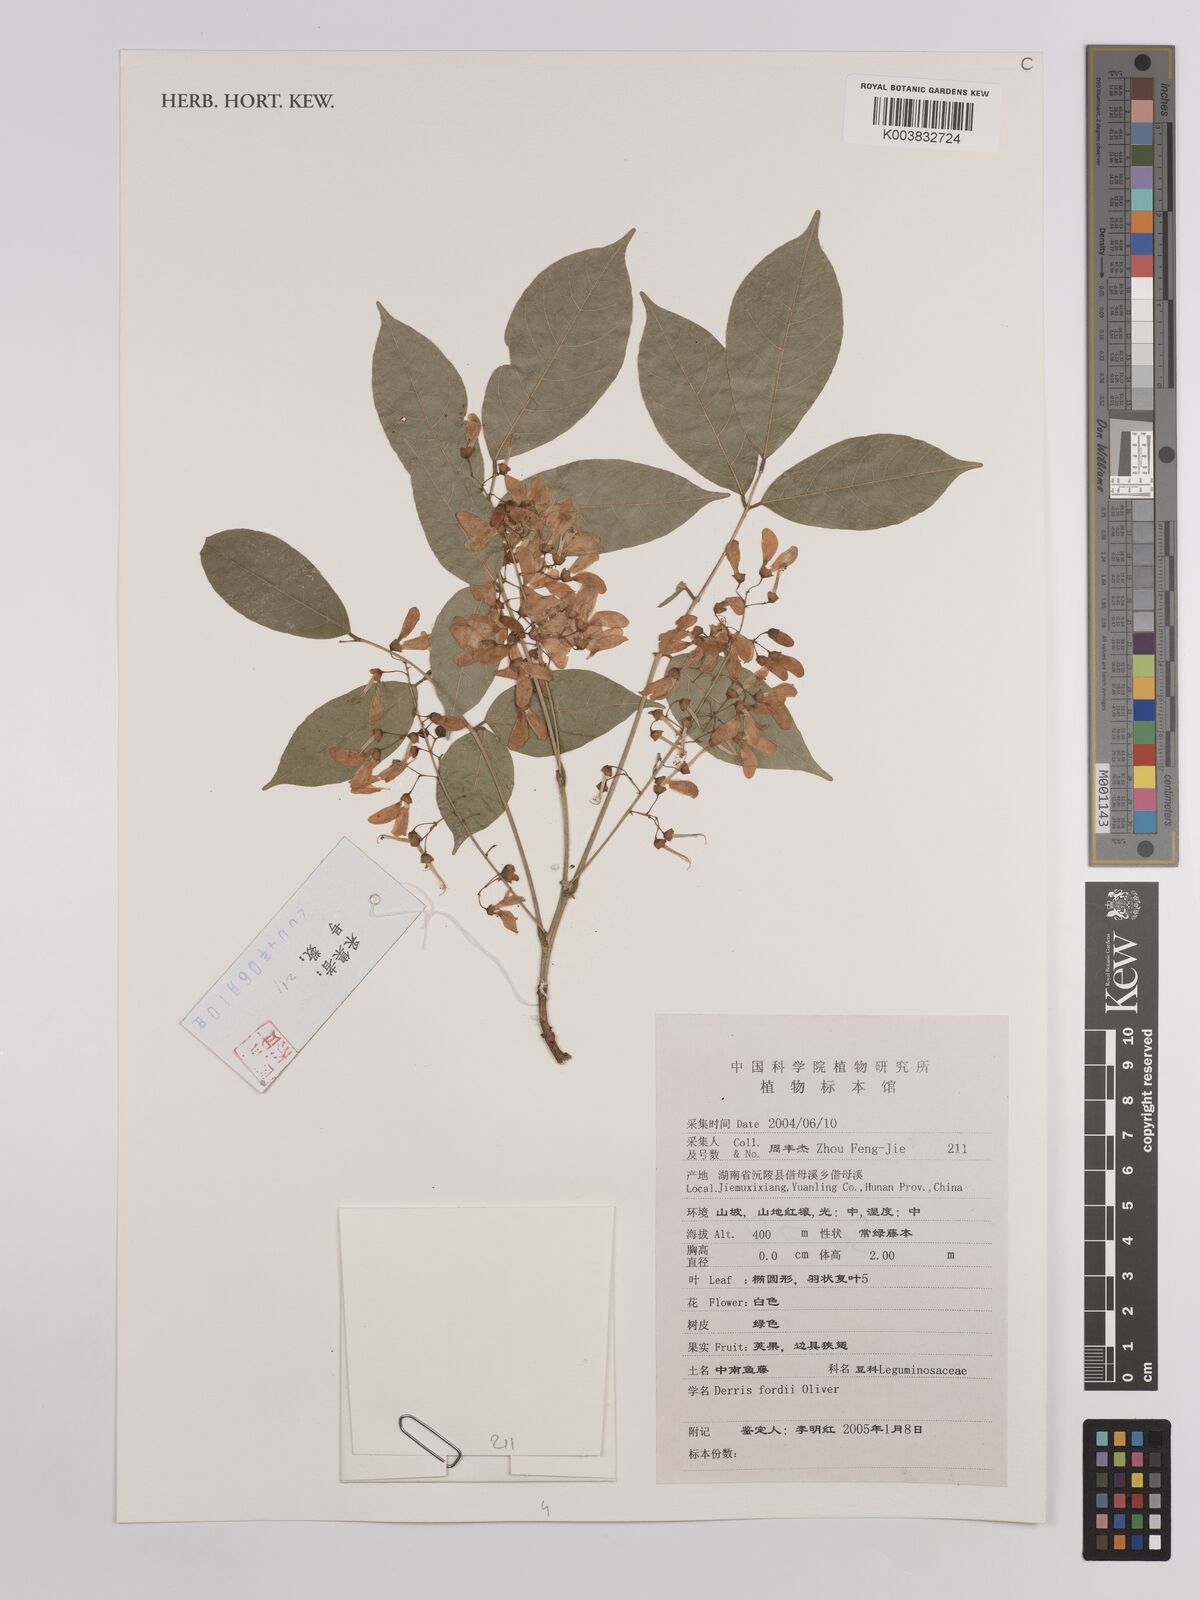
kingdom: Plantae
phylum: Tracheophyta
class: Magnoliopsida
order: Fabales
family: Fabaceae
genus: Derris
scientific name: Derris fordii
